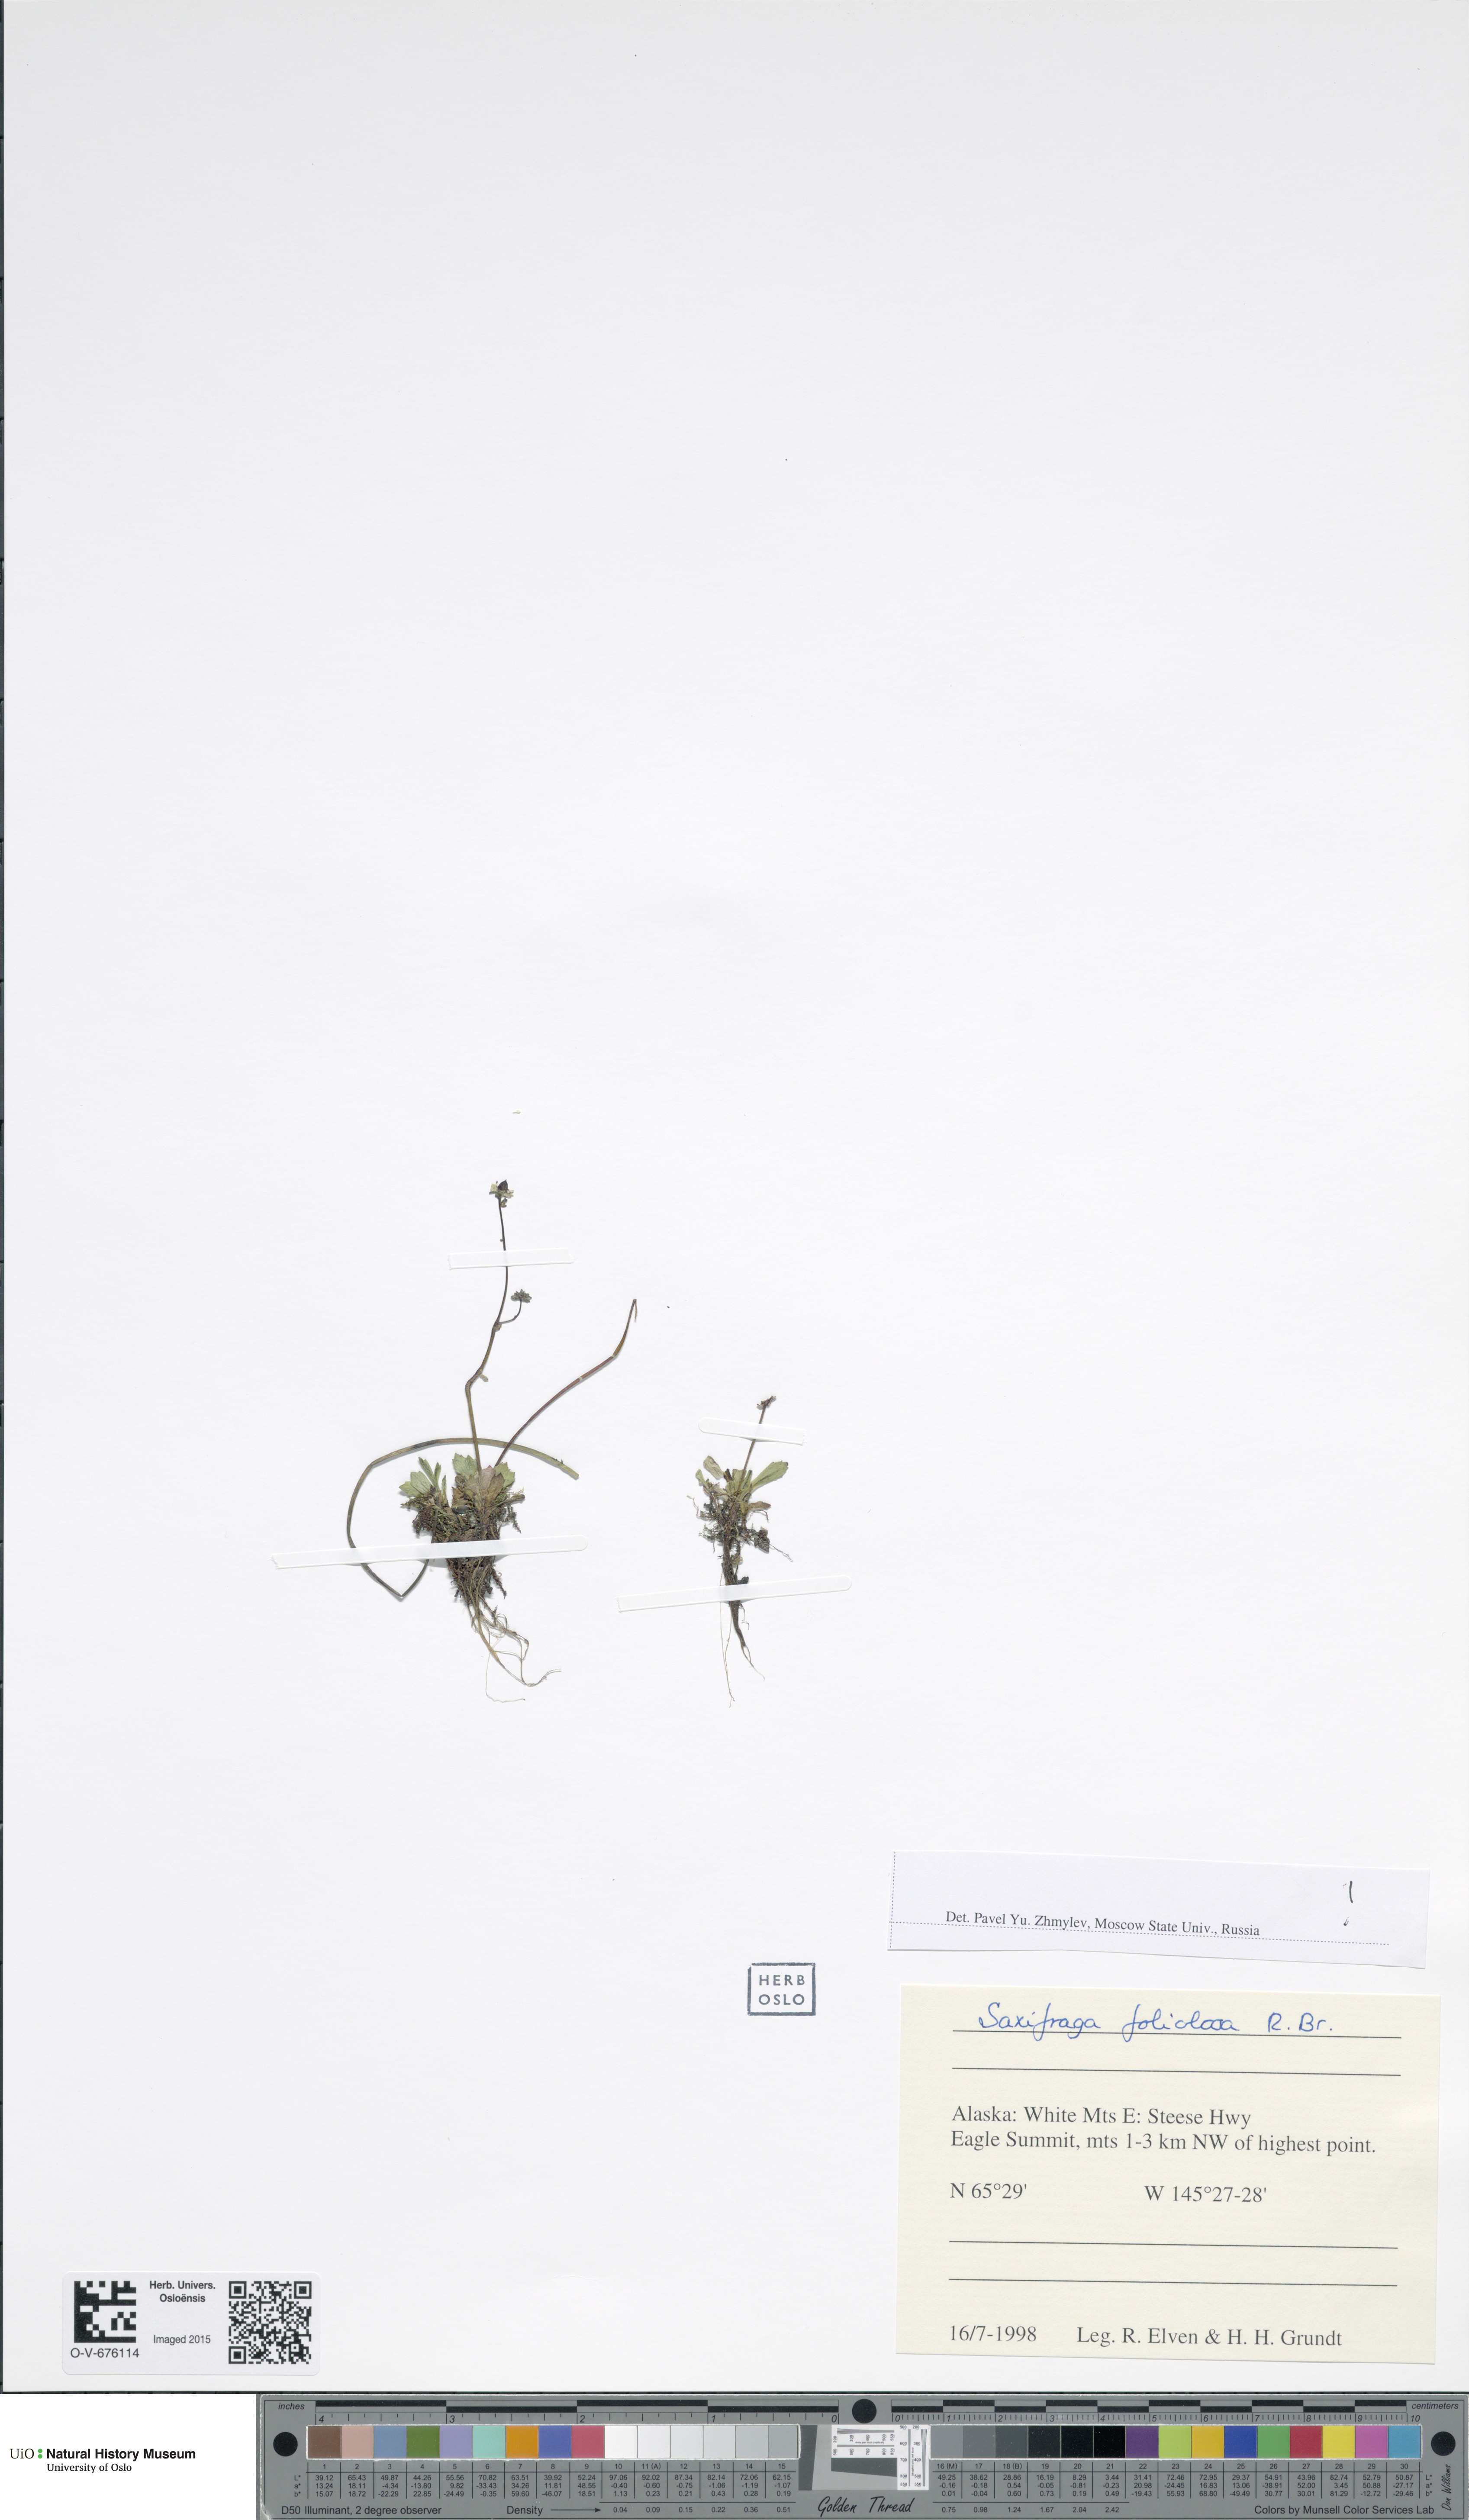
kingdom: Plantae
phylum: Tracheophyta
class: Magnoliopsida
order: Saxifragales
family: Saxifragaceae
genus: Micranthes
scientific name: Micranthes foliolosa
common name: Leafystem saxifrage
